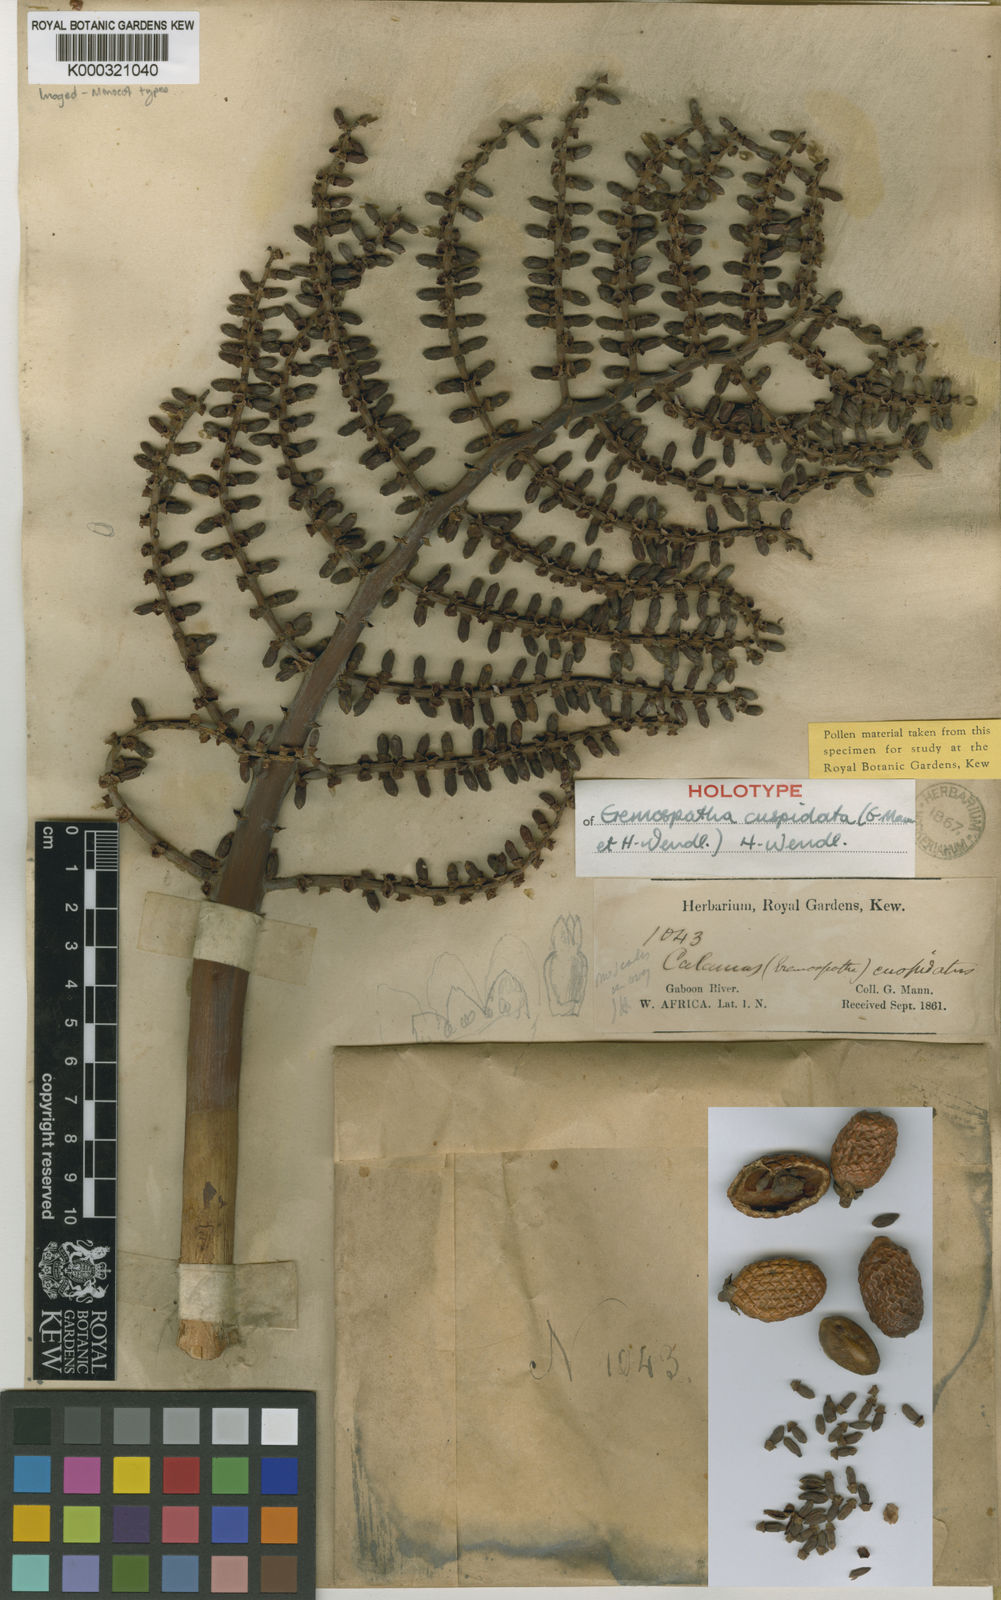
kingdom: Plantae
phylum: Tracheophyta
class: Liliopsida
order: Arecales
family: Arecaceae
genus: Eremospatha
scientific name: Eremospatha cuspidata
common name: Rattan
